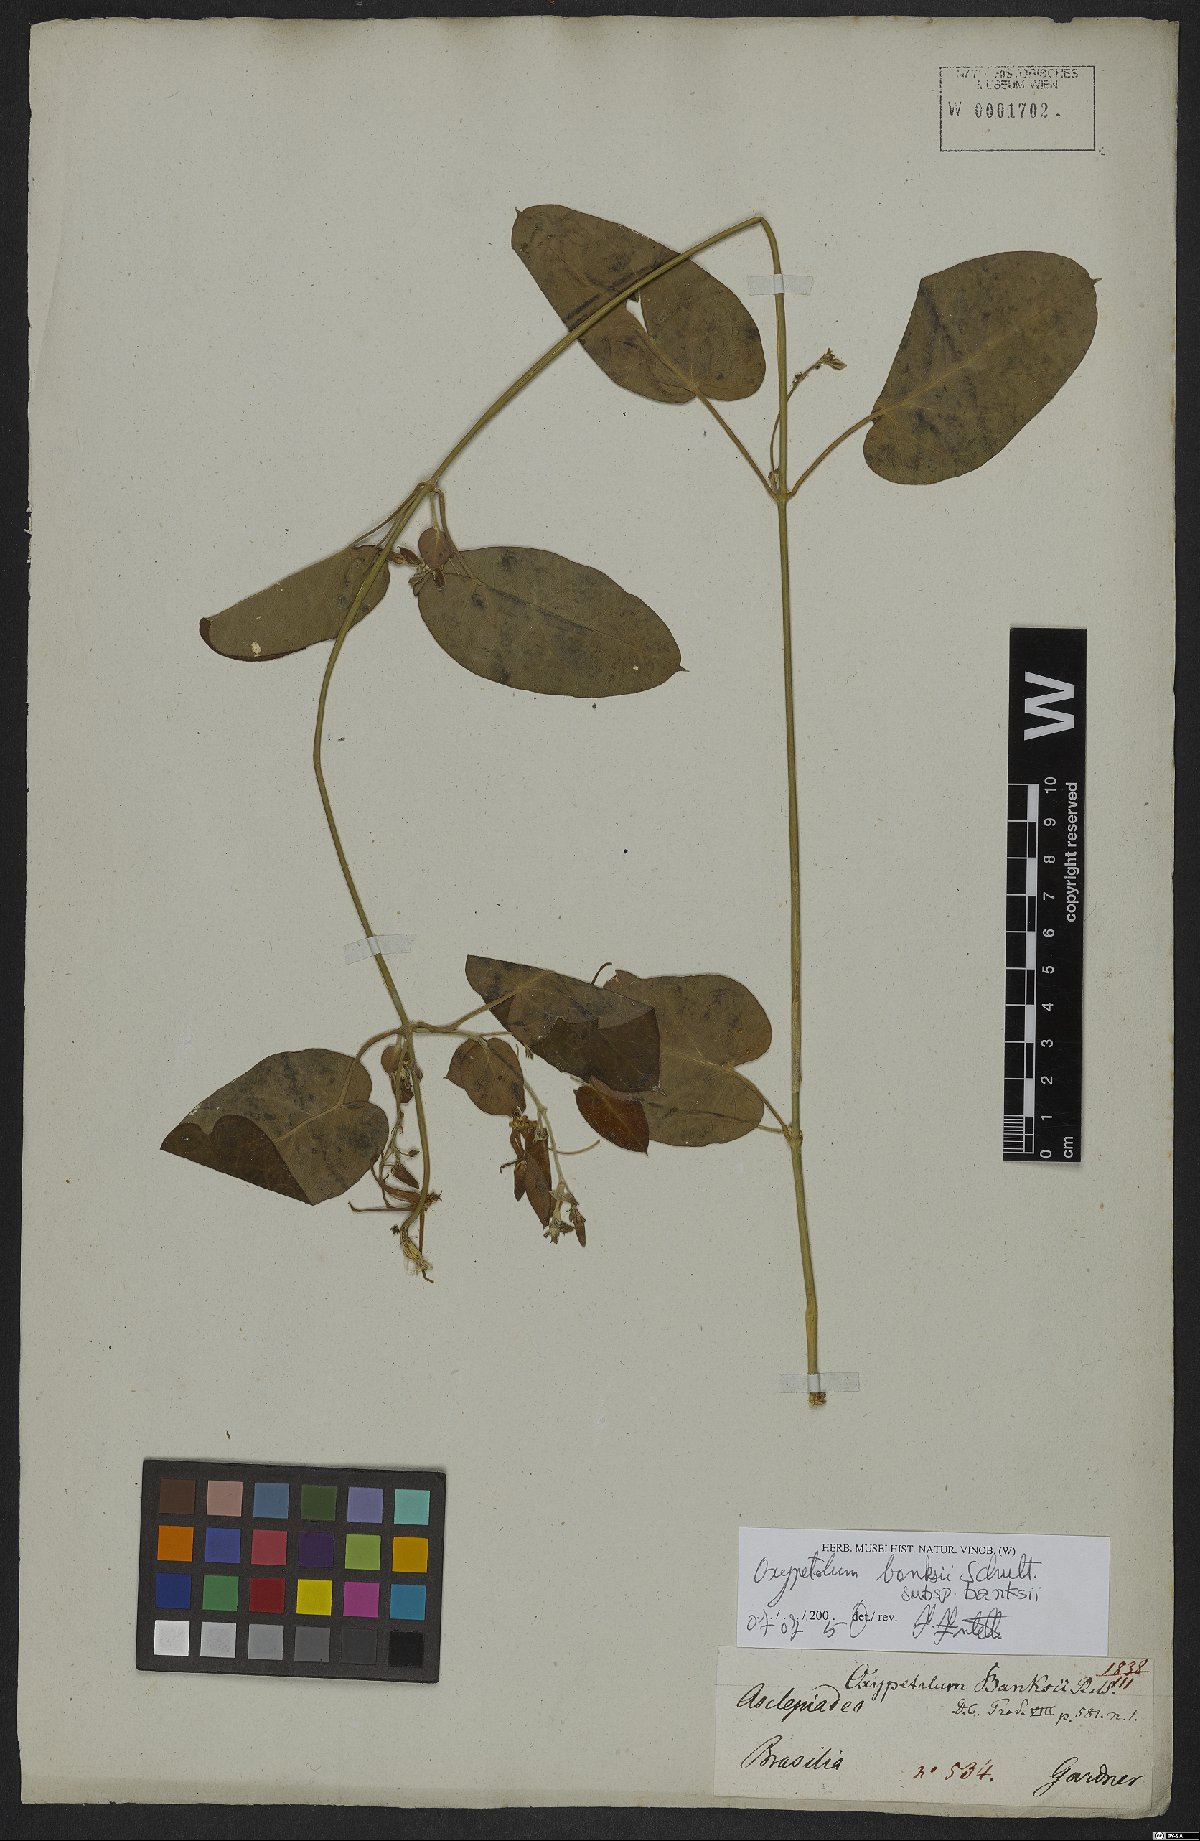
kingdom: Plantae
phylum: Tracheophyta
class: Magnoliopsida
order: Gentianales
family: Apocynaceae
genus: Oxypetalum
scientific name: Oxypetalum banksii
